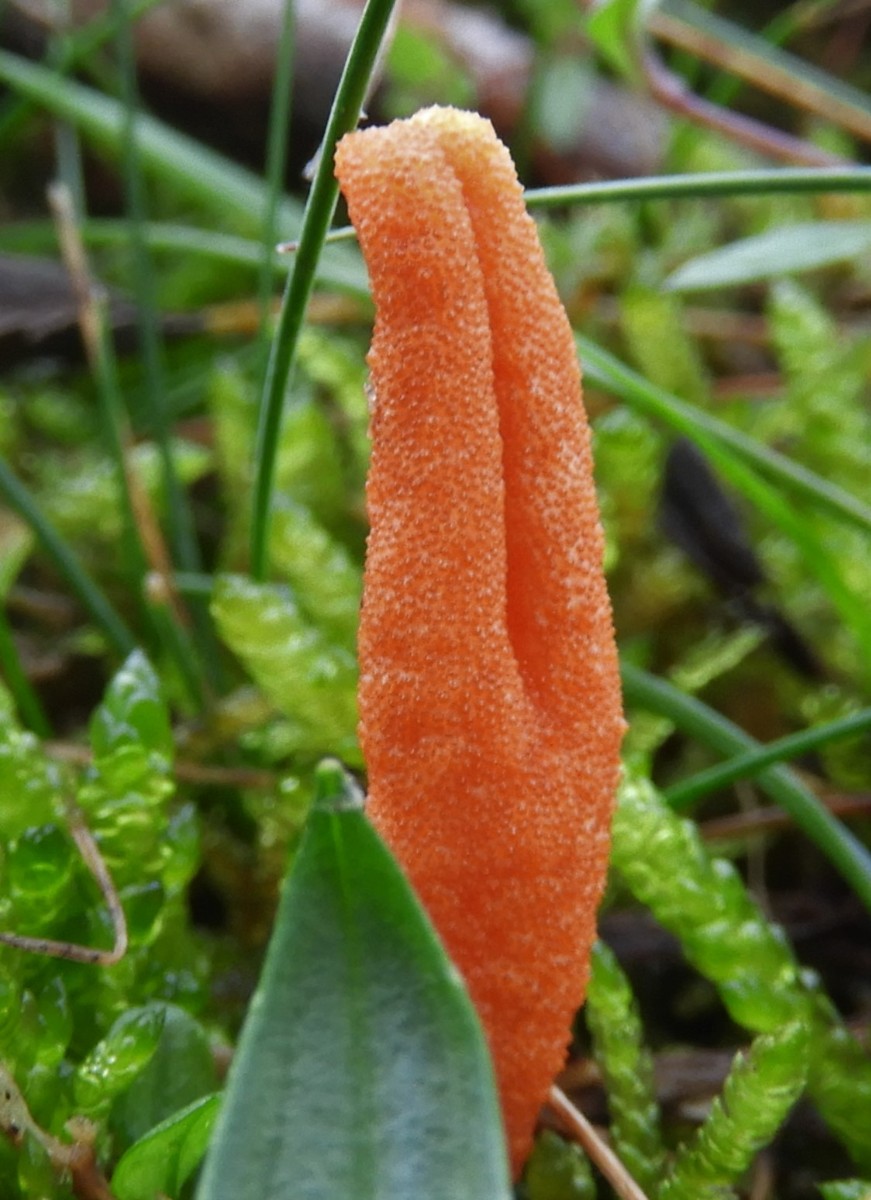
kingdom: Fungi
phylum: Ascomycota
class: Sordariomycetes
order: Hypocreales
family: Cordycipitaceae
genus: Cordyceps
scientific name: Cordyceps militaris
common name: puppe-snyltekølle
